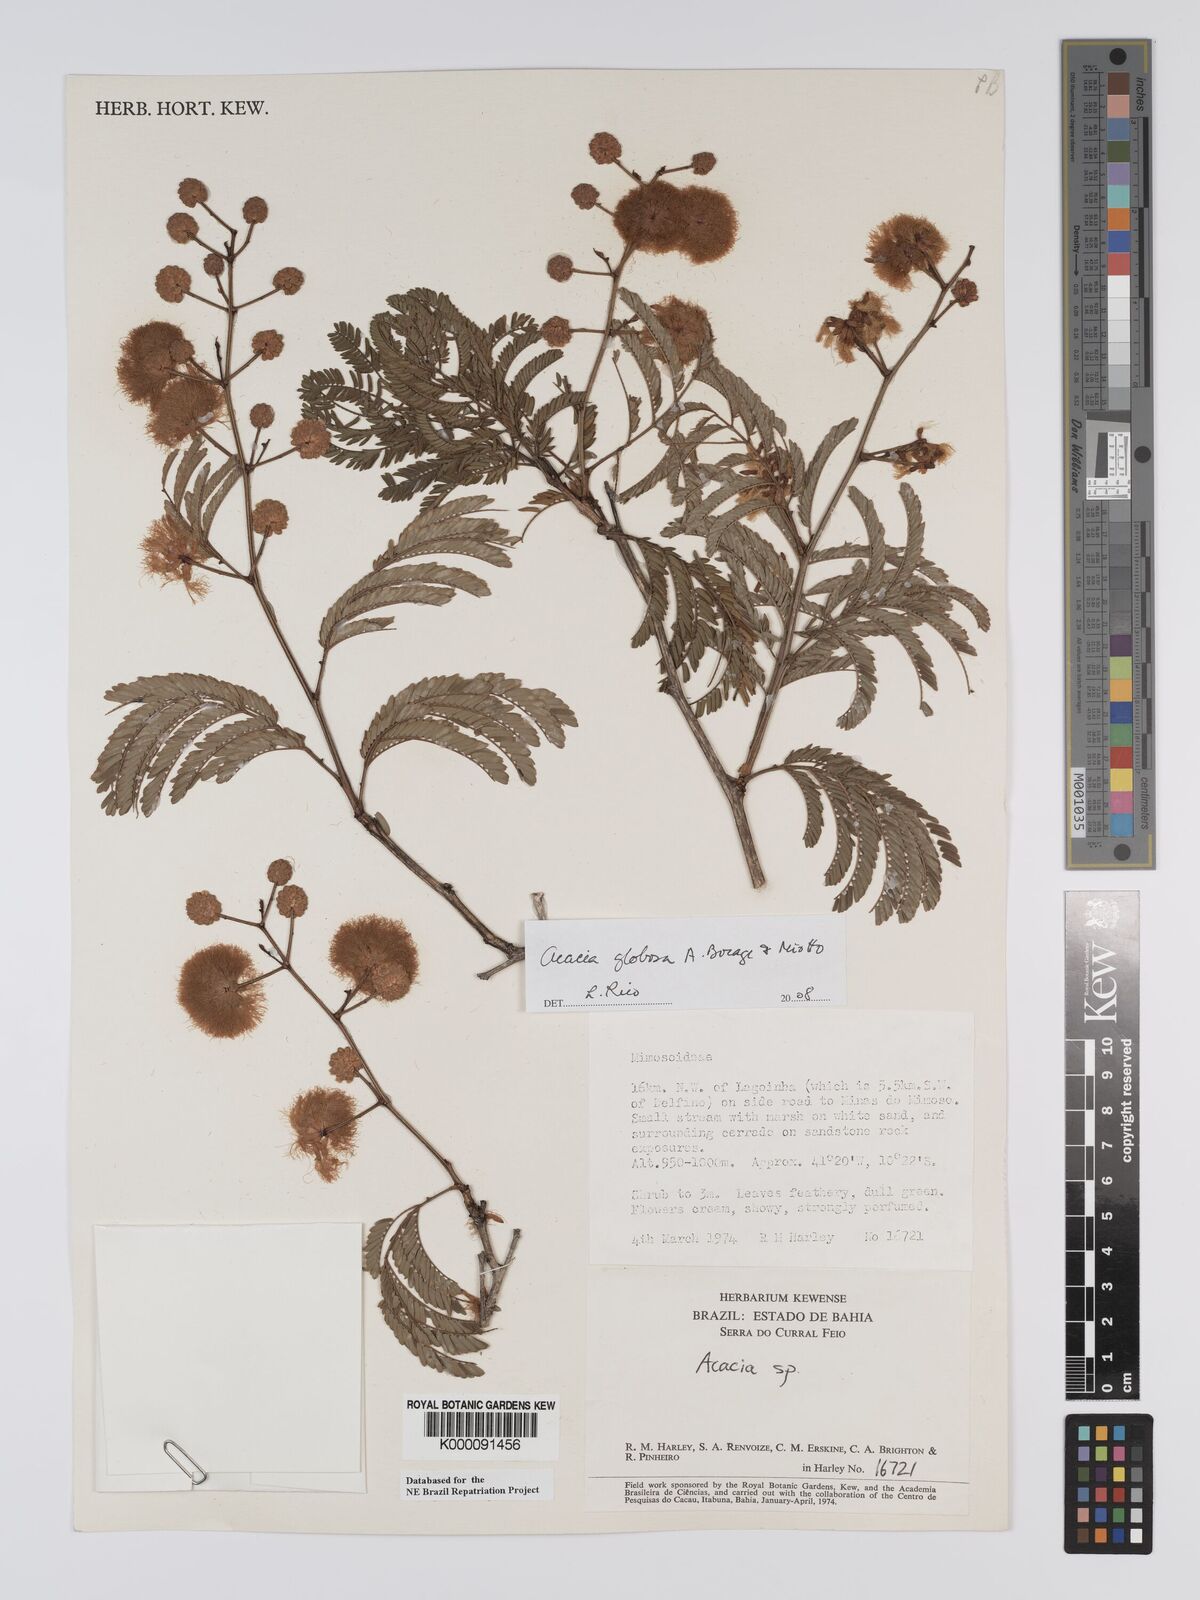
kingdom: Plantae
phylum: Tracheophyta
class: Magnoliopsida
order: Fabales
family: Fabaceae
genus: Senegalia
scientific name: Senegalia globosa
